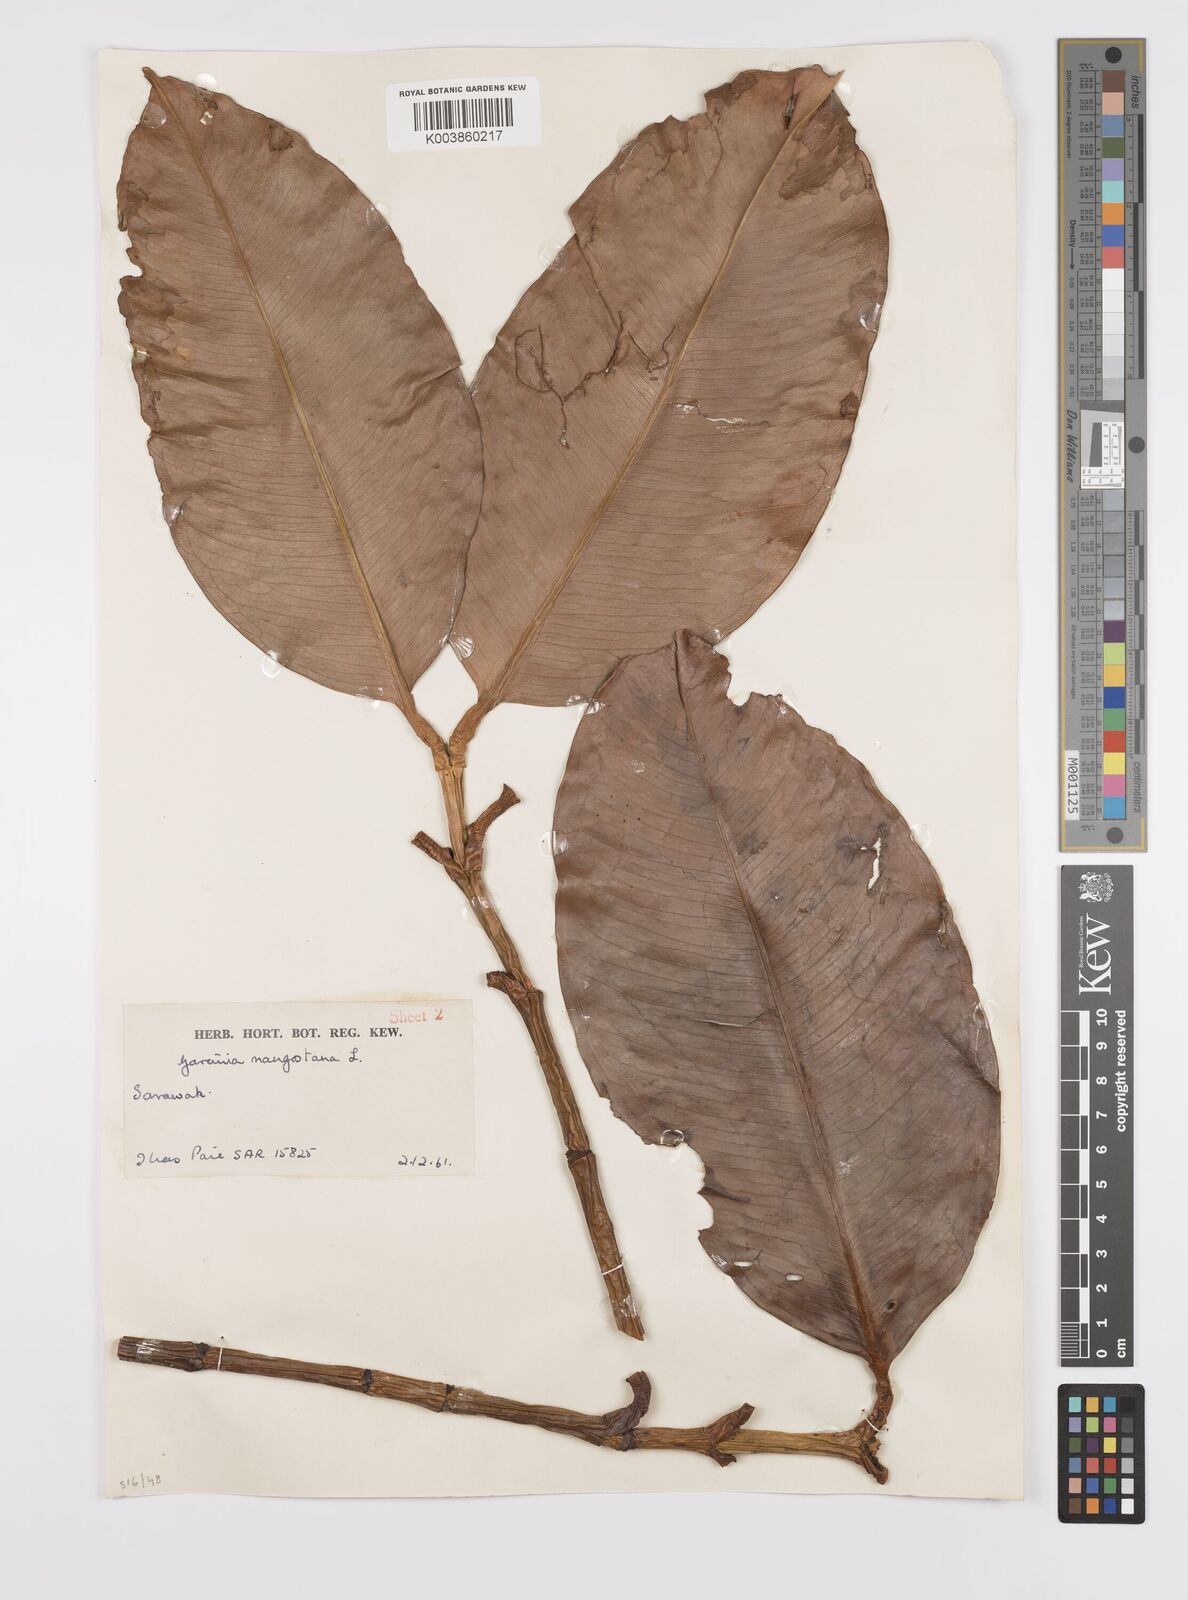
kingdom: Plantae
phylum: Tracheophyta
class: Magnoliopsida
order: Malpighiales
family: Clusiaceae
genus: Garcinia
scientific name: Garcinia mangostana
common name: Mangosteen
